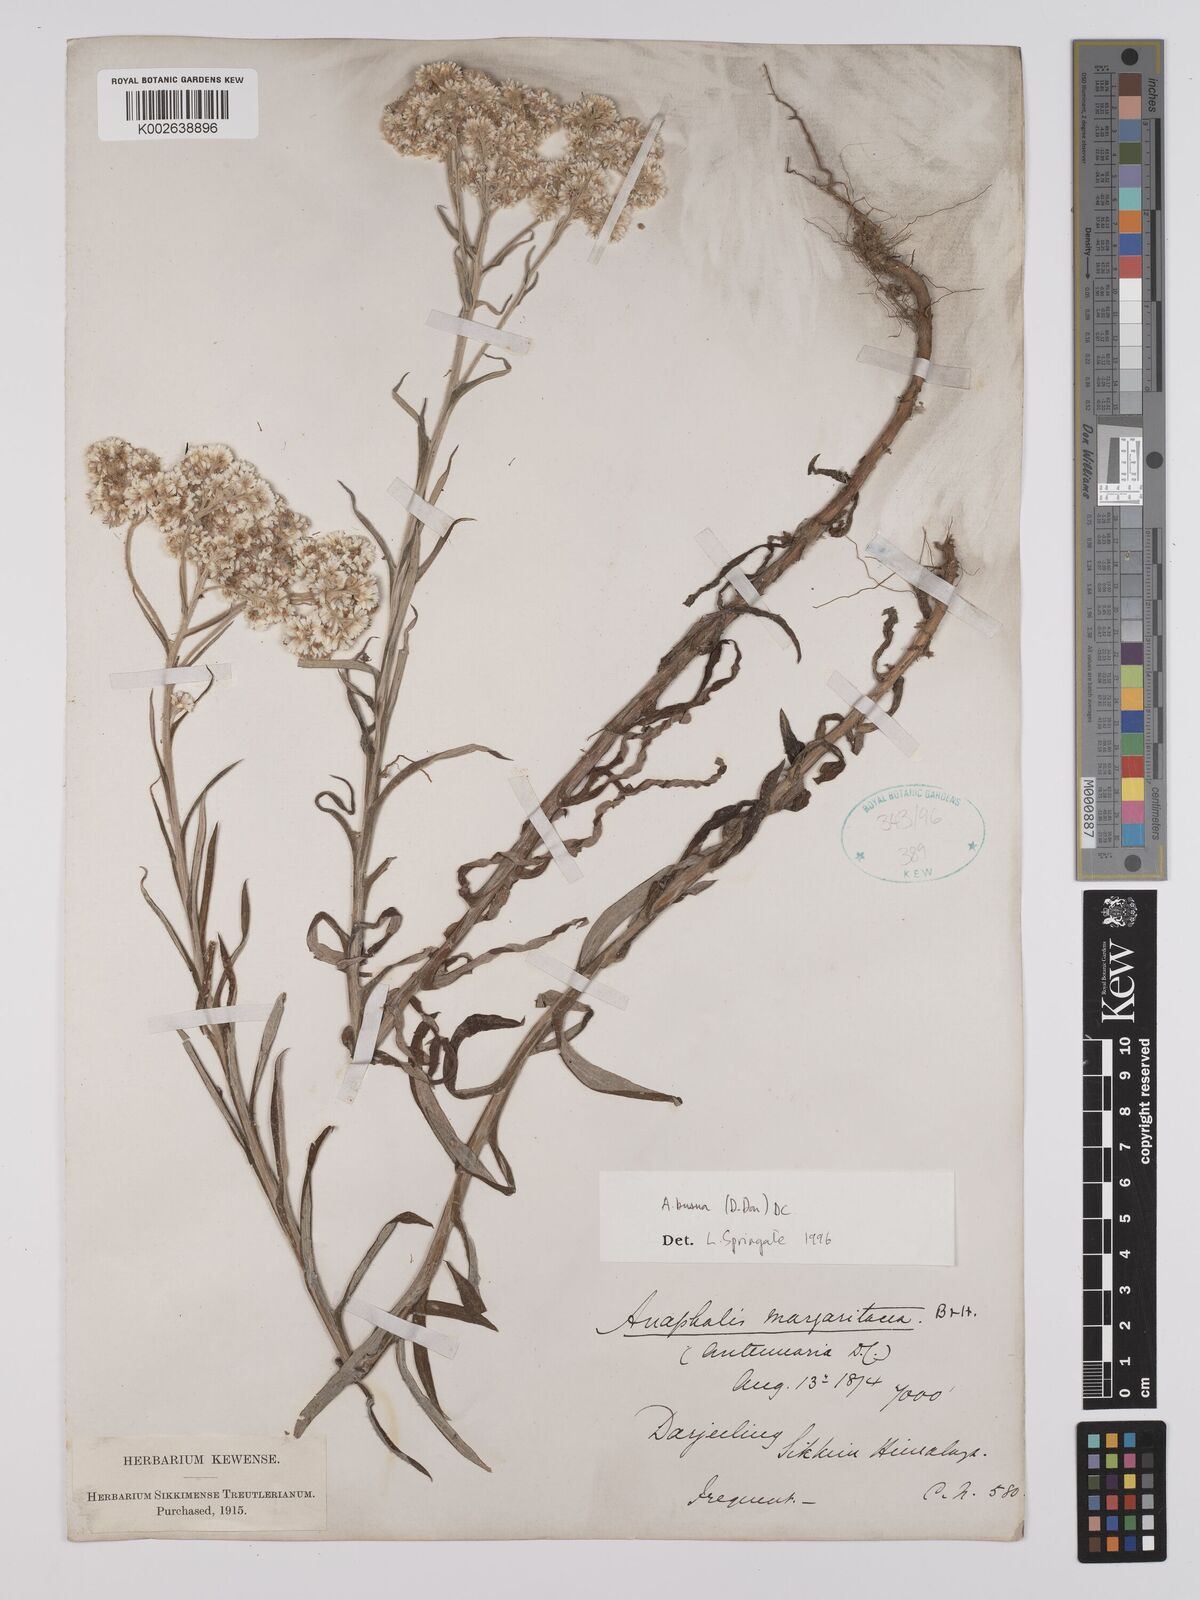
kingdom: Plantae
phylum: Tracheophyta
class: Magnoliopsida
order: Asterales
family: Asteraceae
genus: Anaphalis
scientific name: Anaphalis busua
